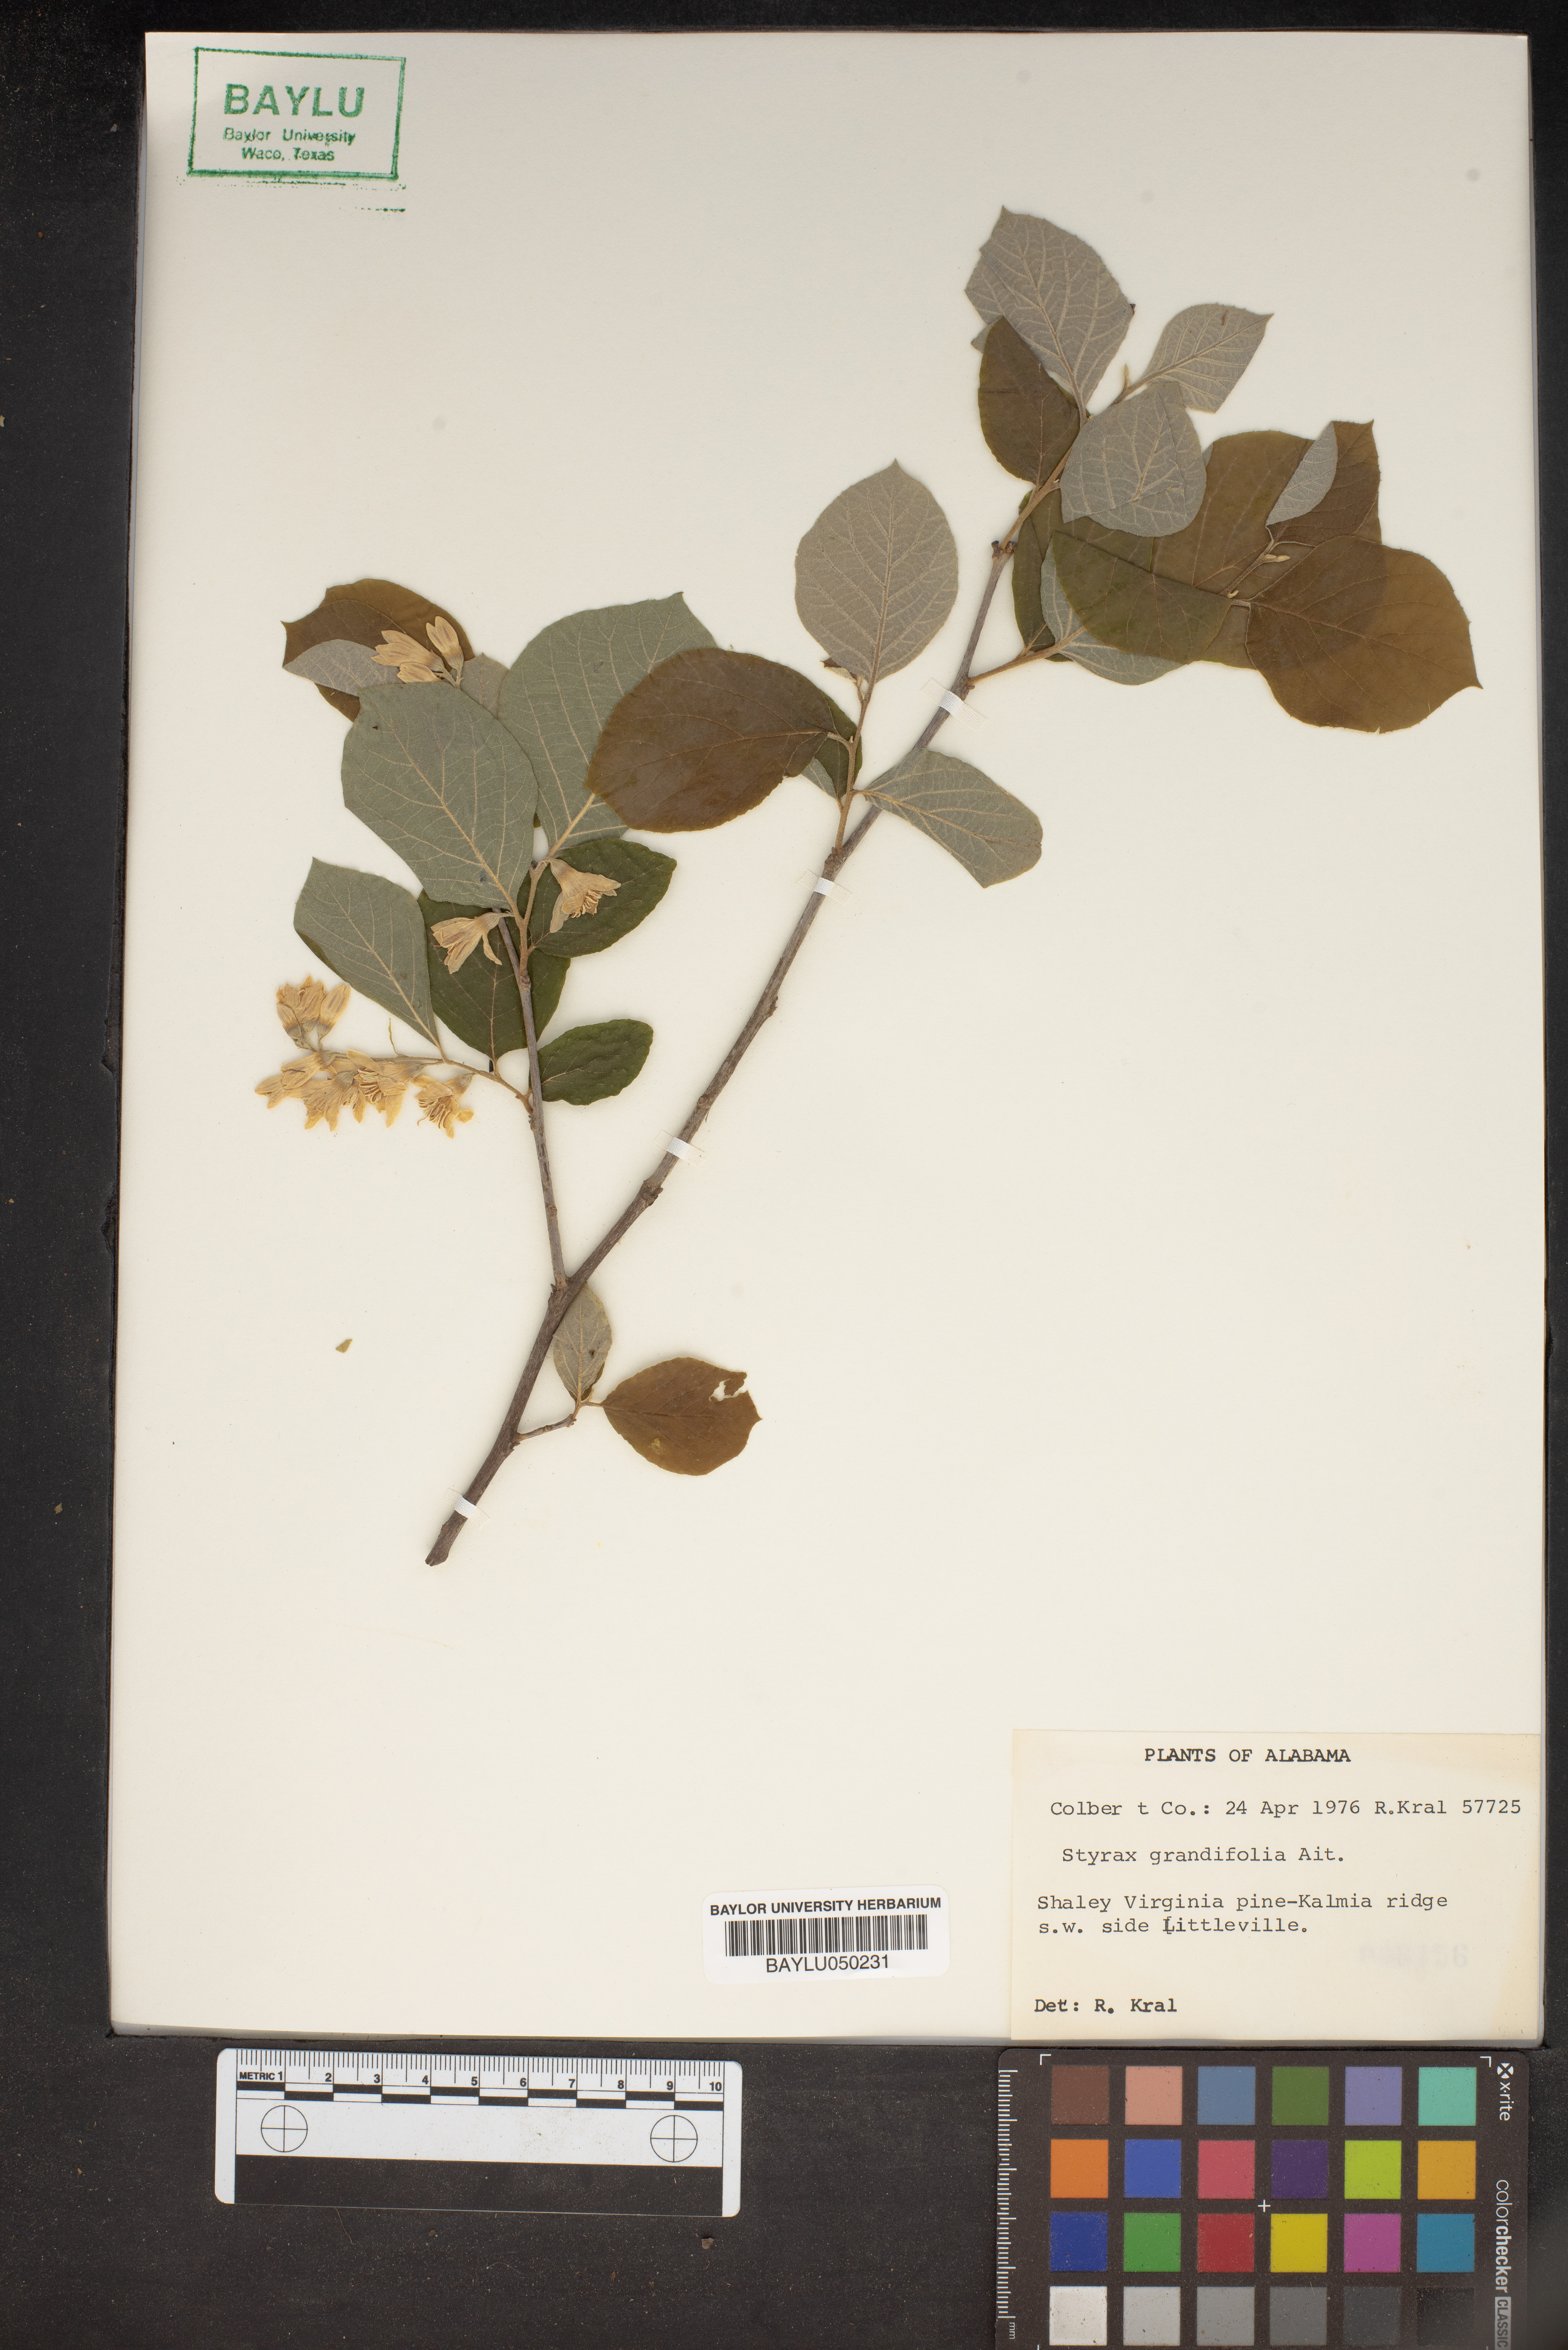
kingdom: Plantae
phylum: Tracheophyta
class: Magnoliopsida
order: Ericales
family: Styracaceae
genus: Styrax
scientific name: Styrax grandifolius
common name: Big-leaf snowbell
